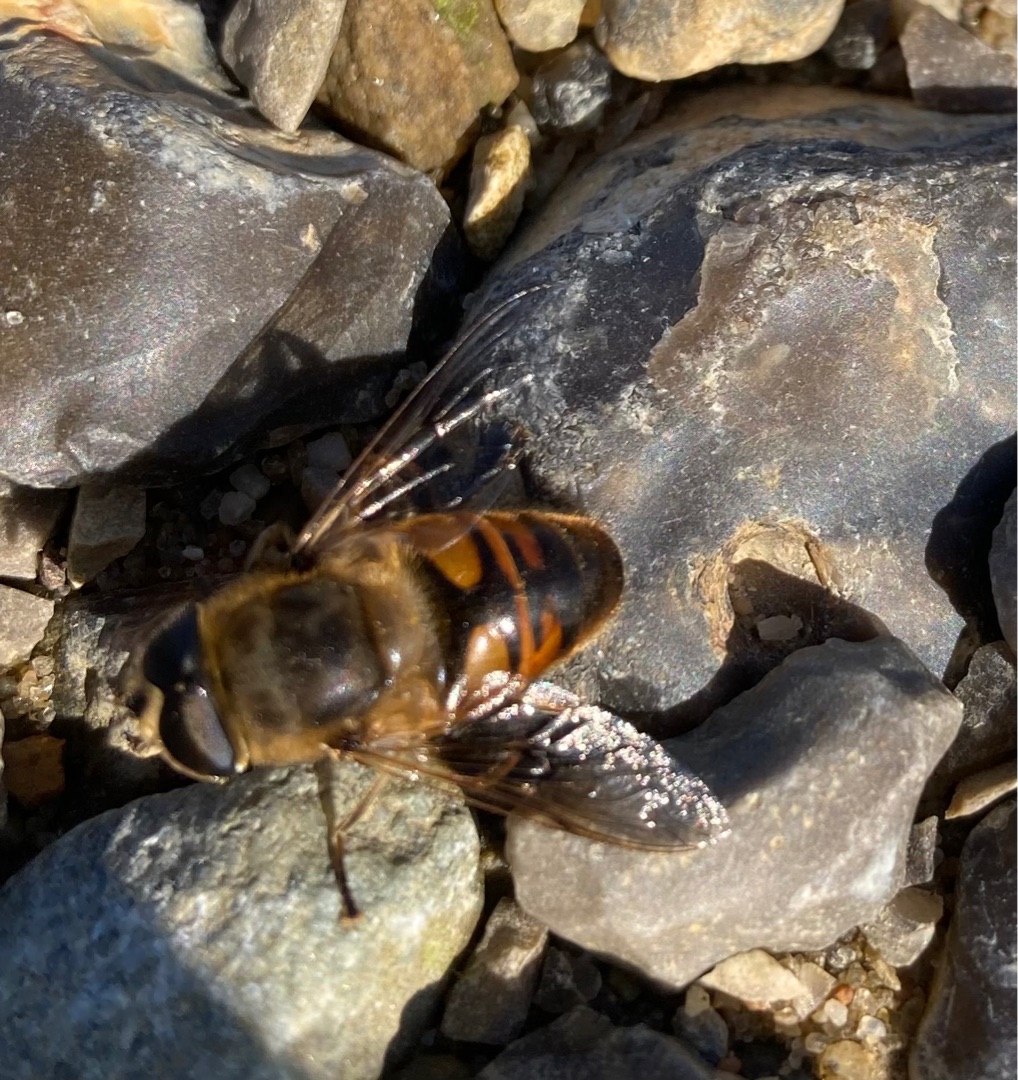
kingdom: Animalia
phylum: Arthropoda
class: Insecta
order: Diptera
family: Syrphidae
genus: Eristalis
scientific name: Eristalis tenax
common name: Droneflue
